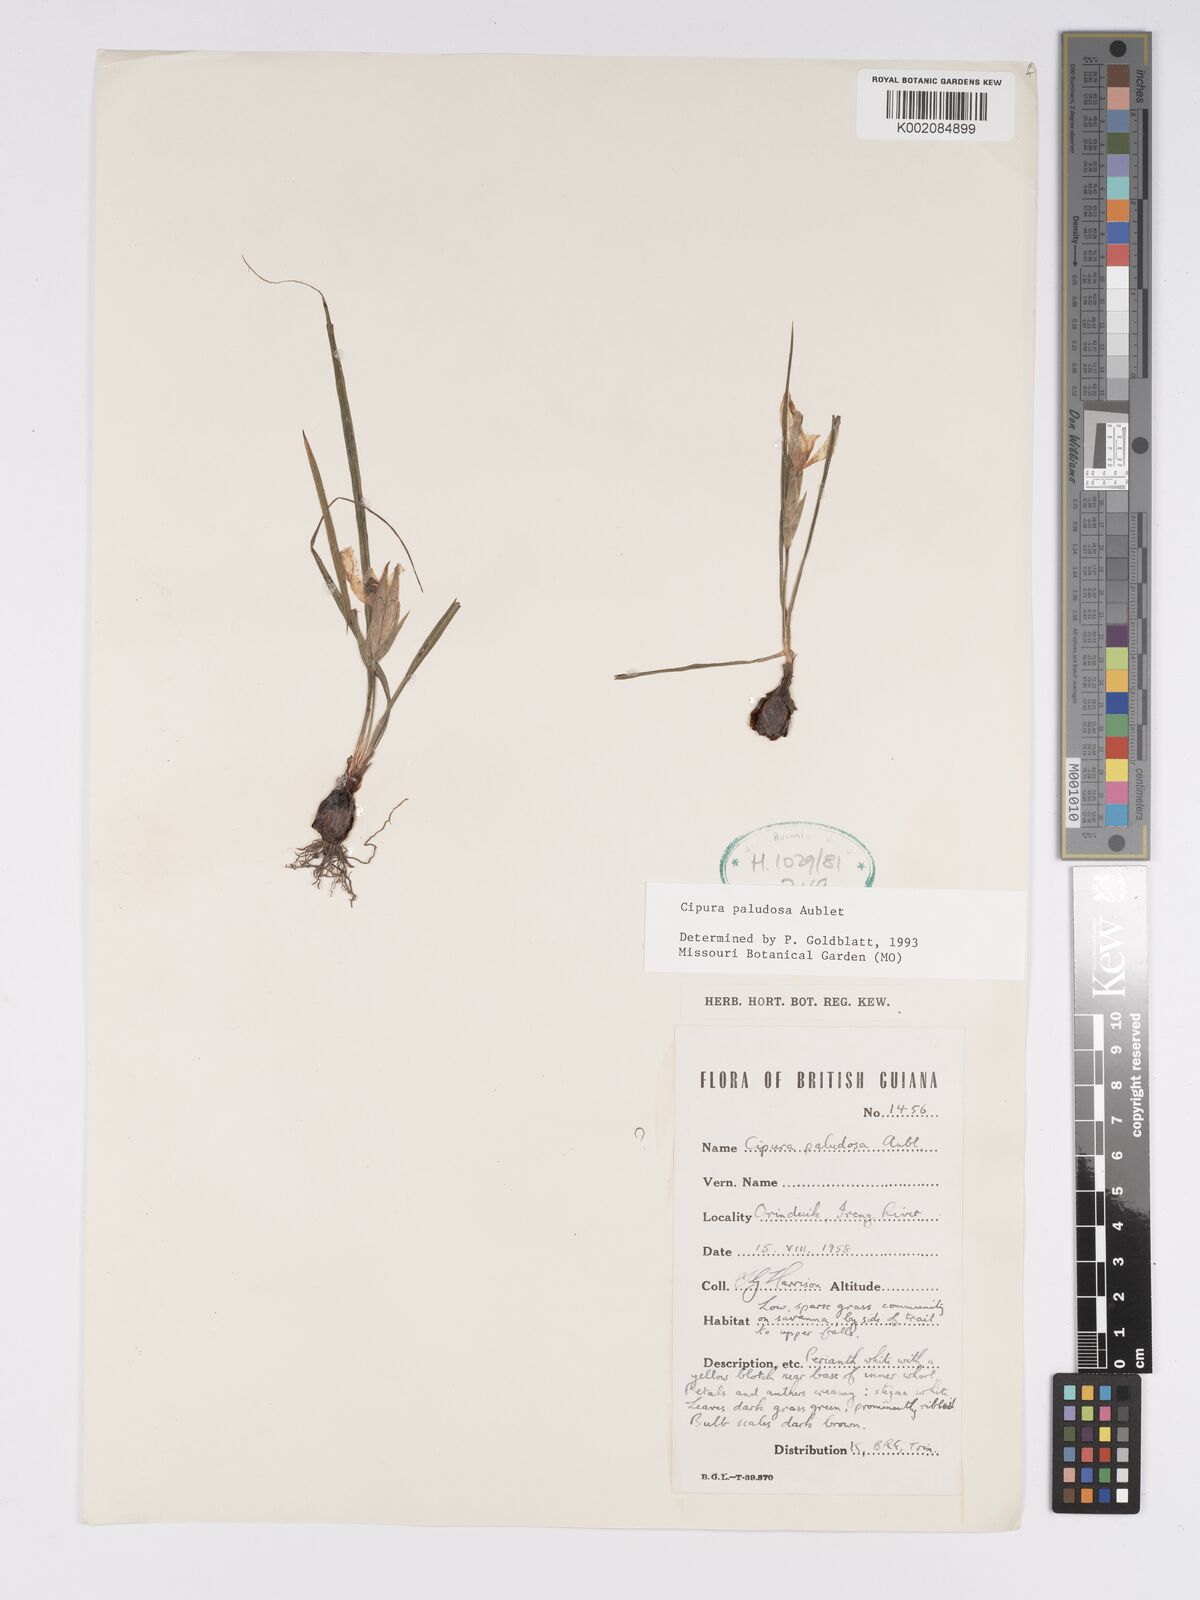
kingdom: Plantae
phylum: Tracheophyta
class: Liliopsida
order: Asparagales
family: Iridaceae
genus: Cipura
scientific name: Cipura paludosa
